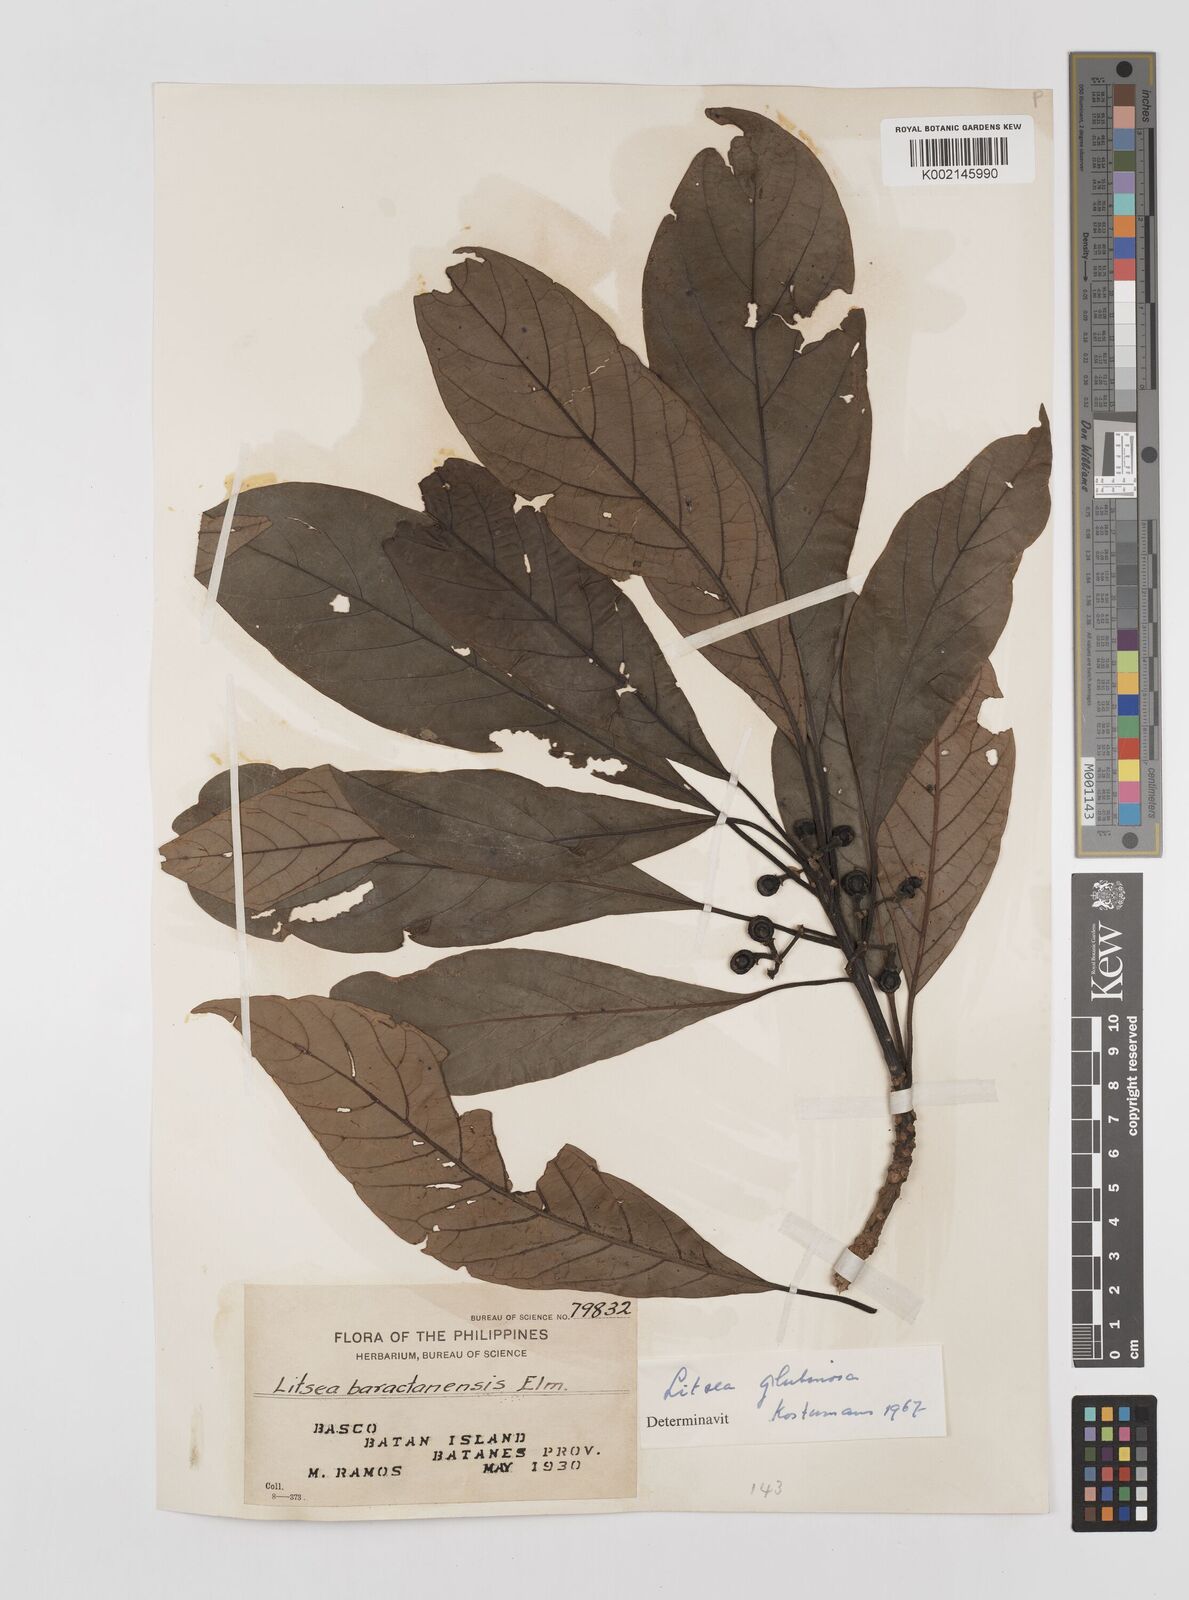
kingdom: Plantae
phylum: Tracheophyta
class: Magnoliopsida
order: Laurales
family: Lauraceae
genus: Litsea
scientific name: Litsea glutinosa
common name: Indian-laurel
